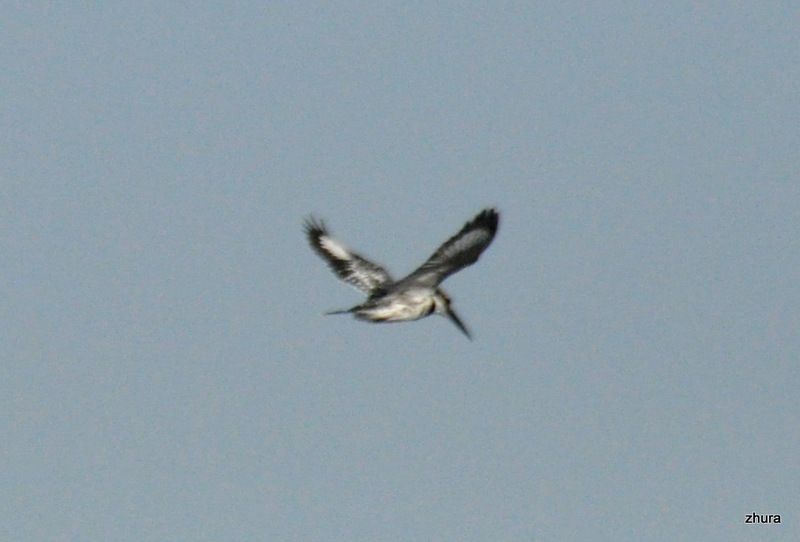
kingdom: Animalia
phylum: Chordata
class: Aves
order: Coraciiformes
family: Alcedinidae
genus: Ceryle
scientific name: Ceryle rudis
